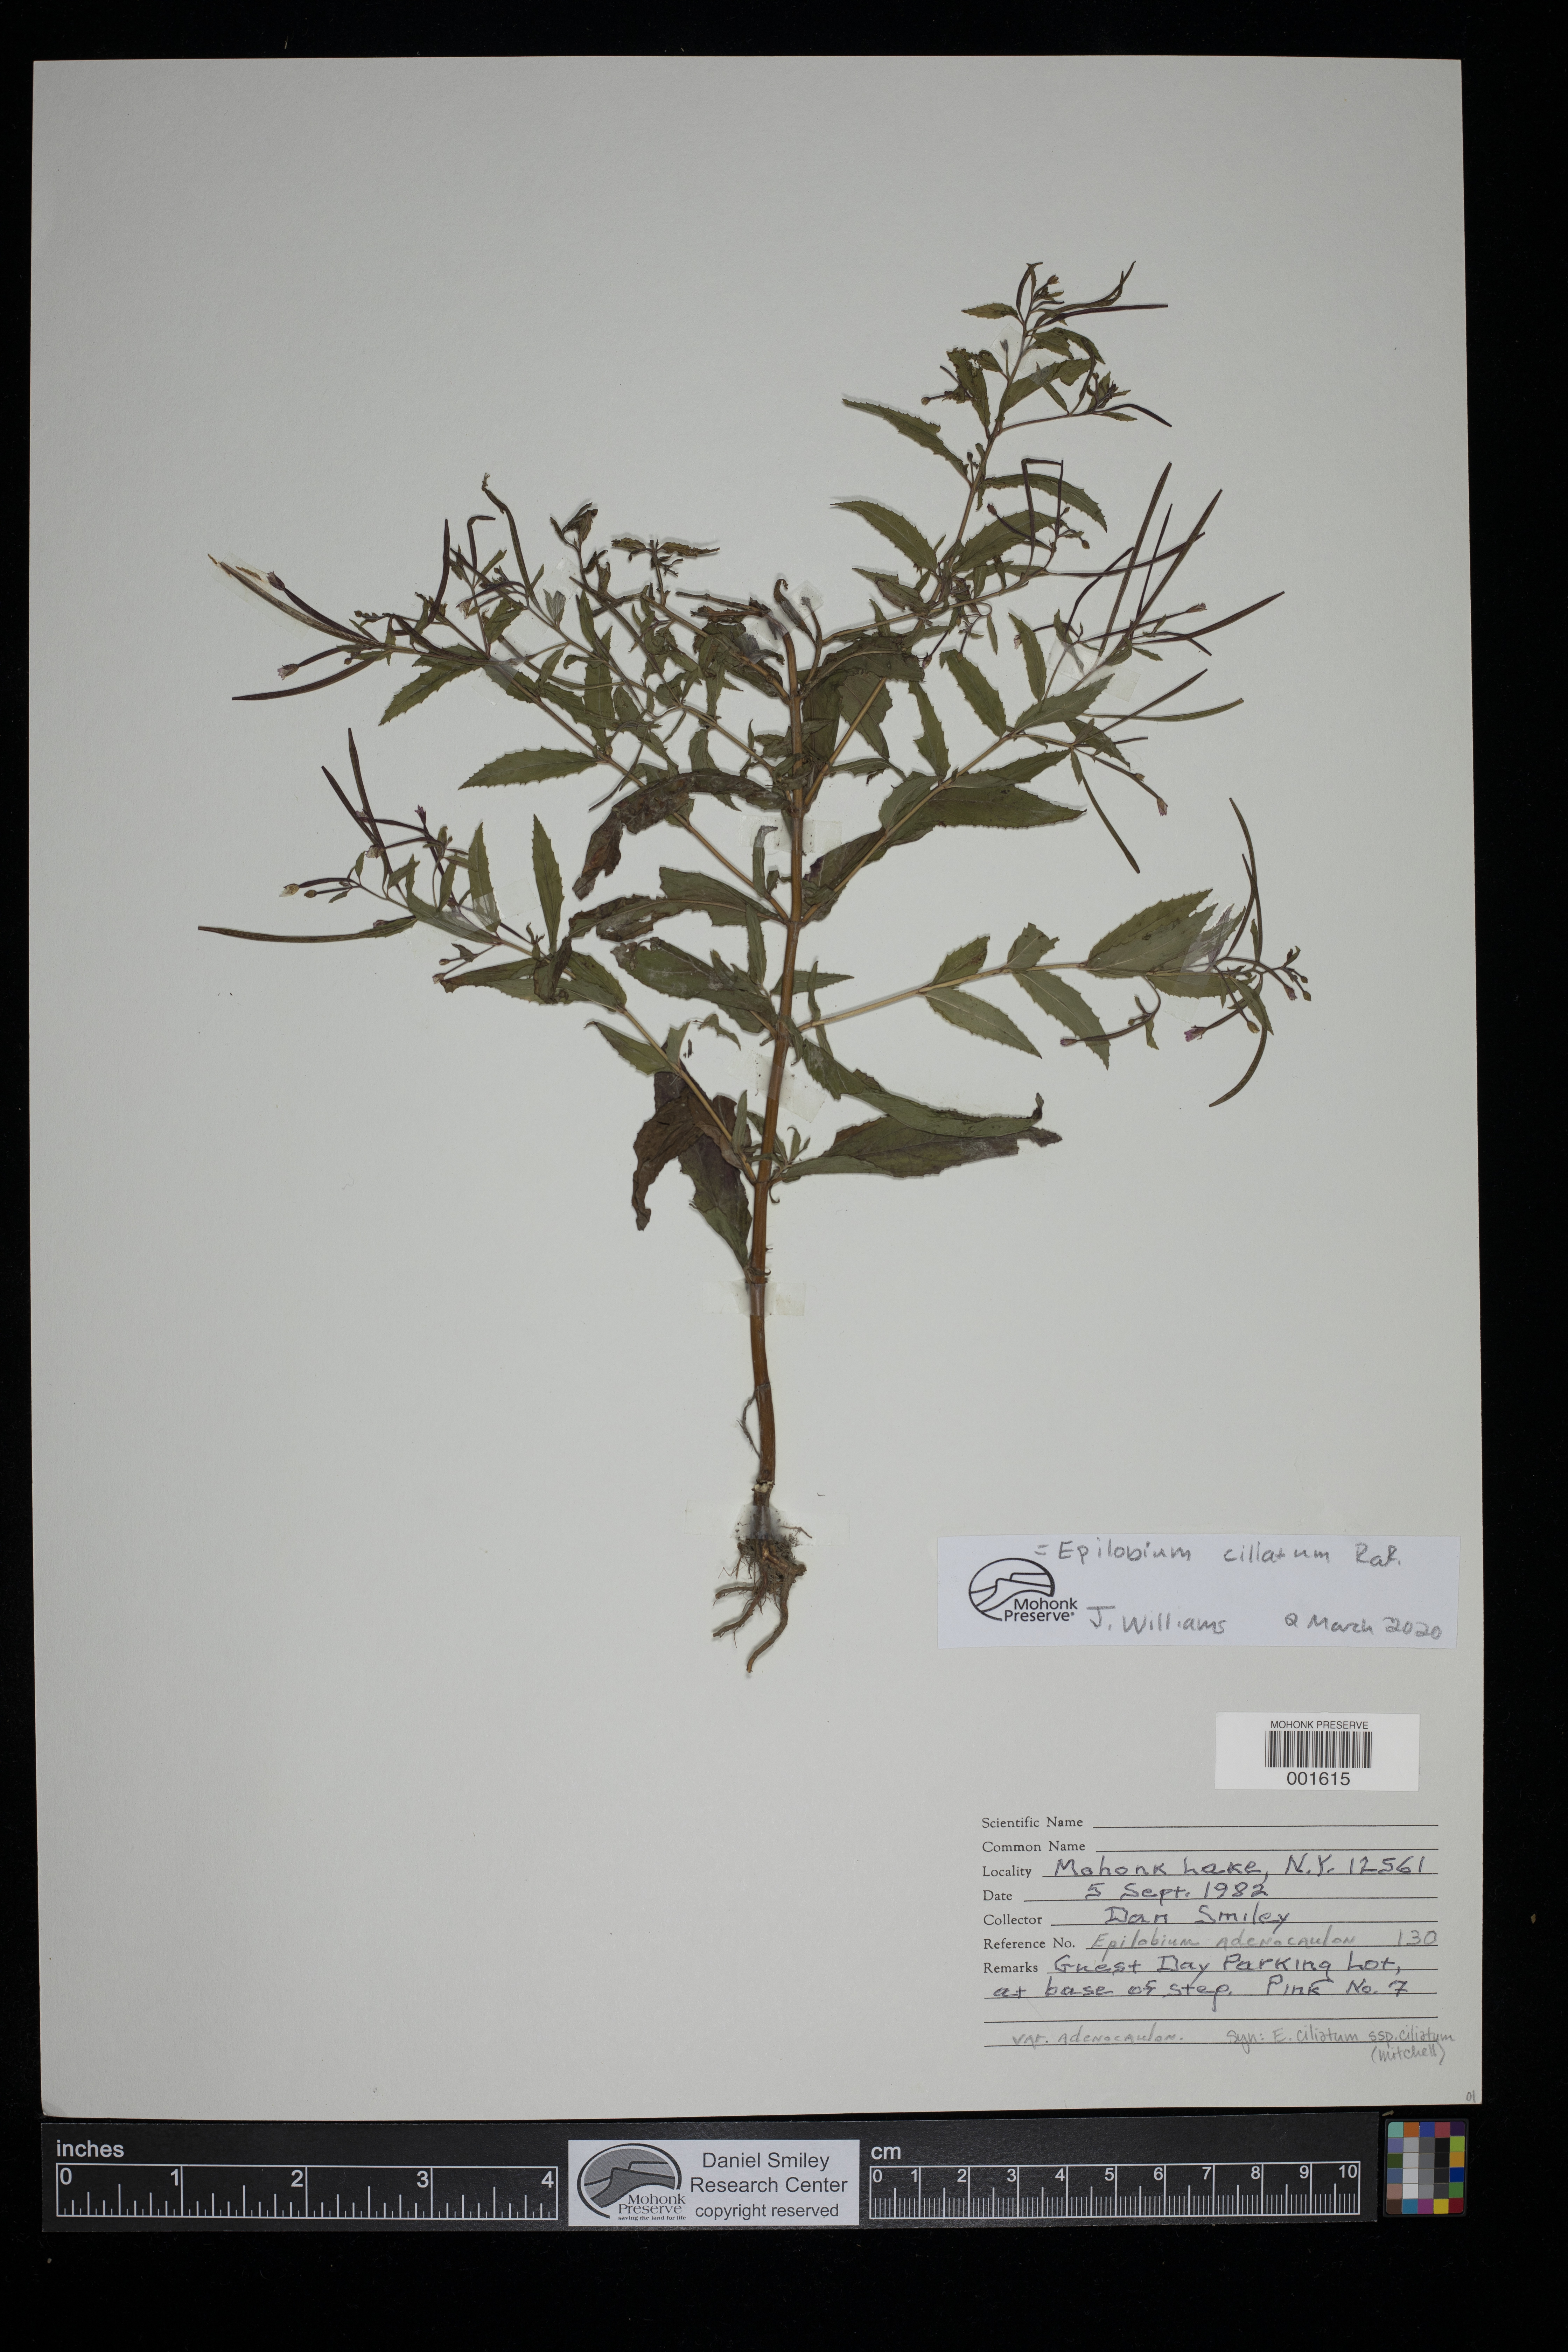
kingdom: Plantae
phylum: Tracheophyta
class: Magnoliopsida
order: Myrtales
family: Onagraceae
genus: Epilobium
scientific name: Epilobium ciliatum
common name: American willowherb
